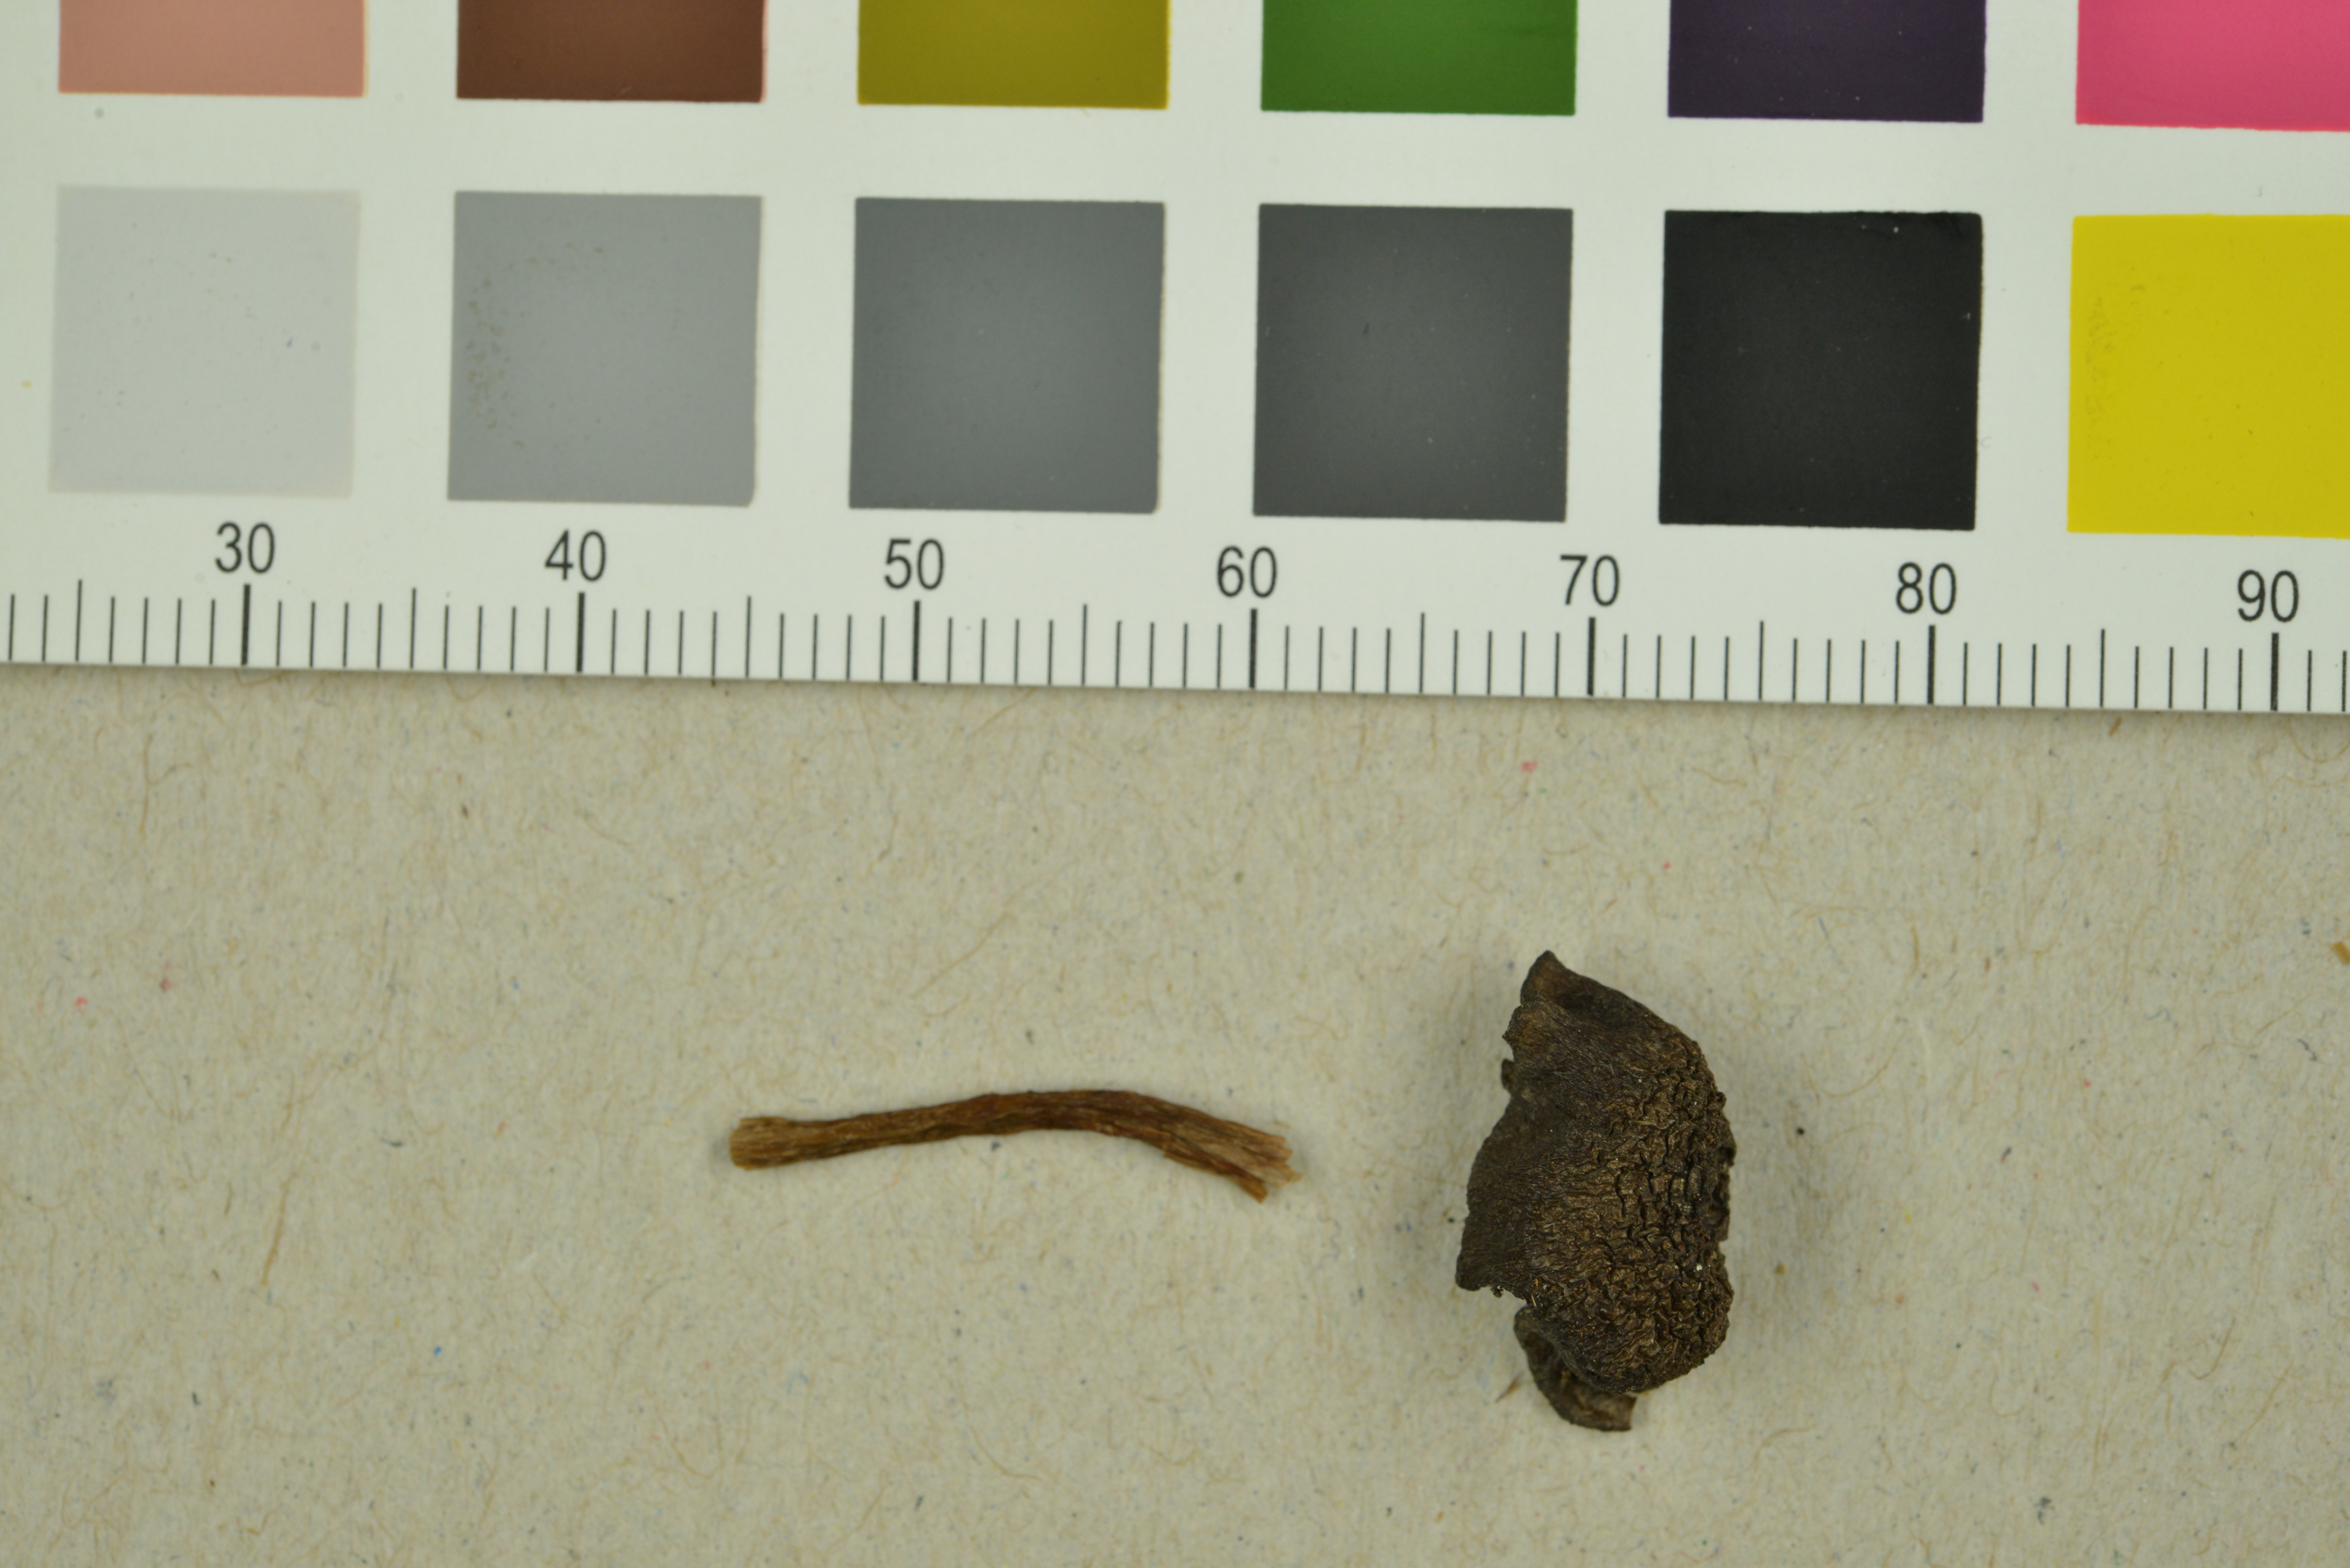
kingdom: Fungi
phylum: Basidiomycota
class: Agaricomycetes
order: Agaricales
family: Entolomataceae
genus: Entoloma
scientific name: Entoloma turci
